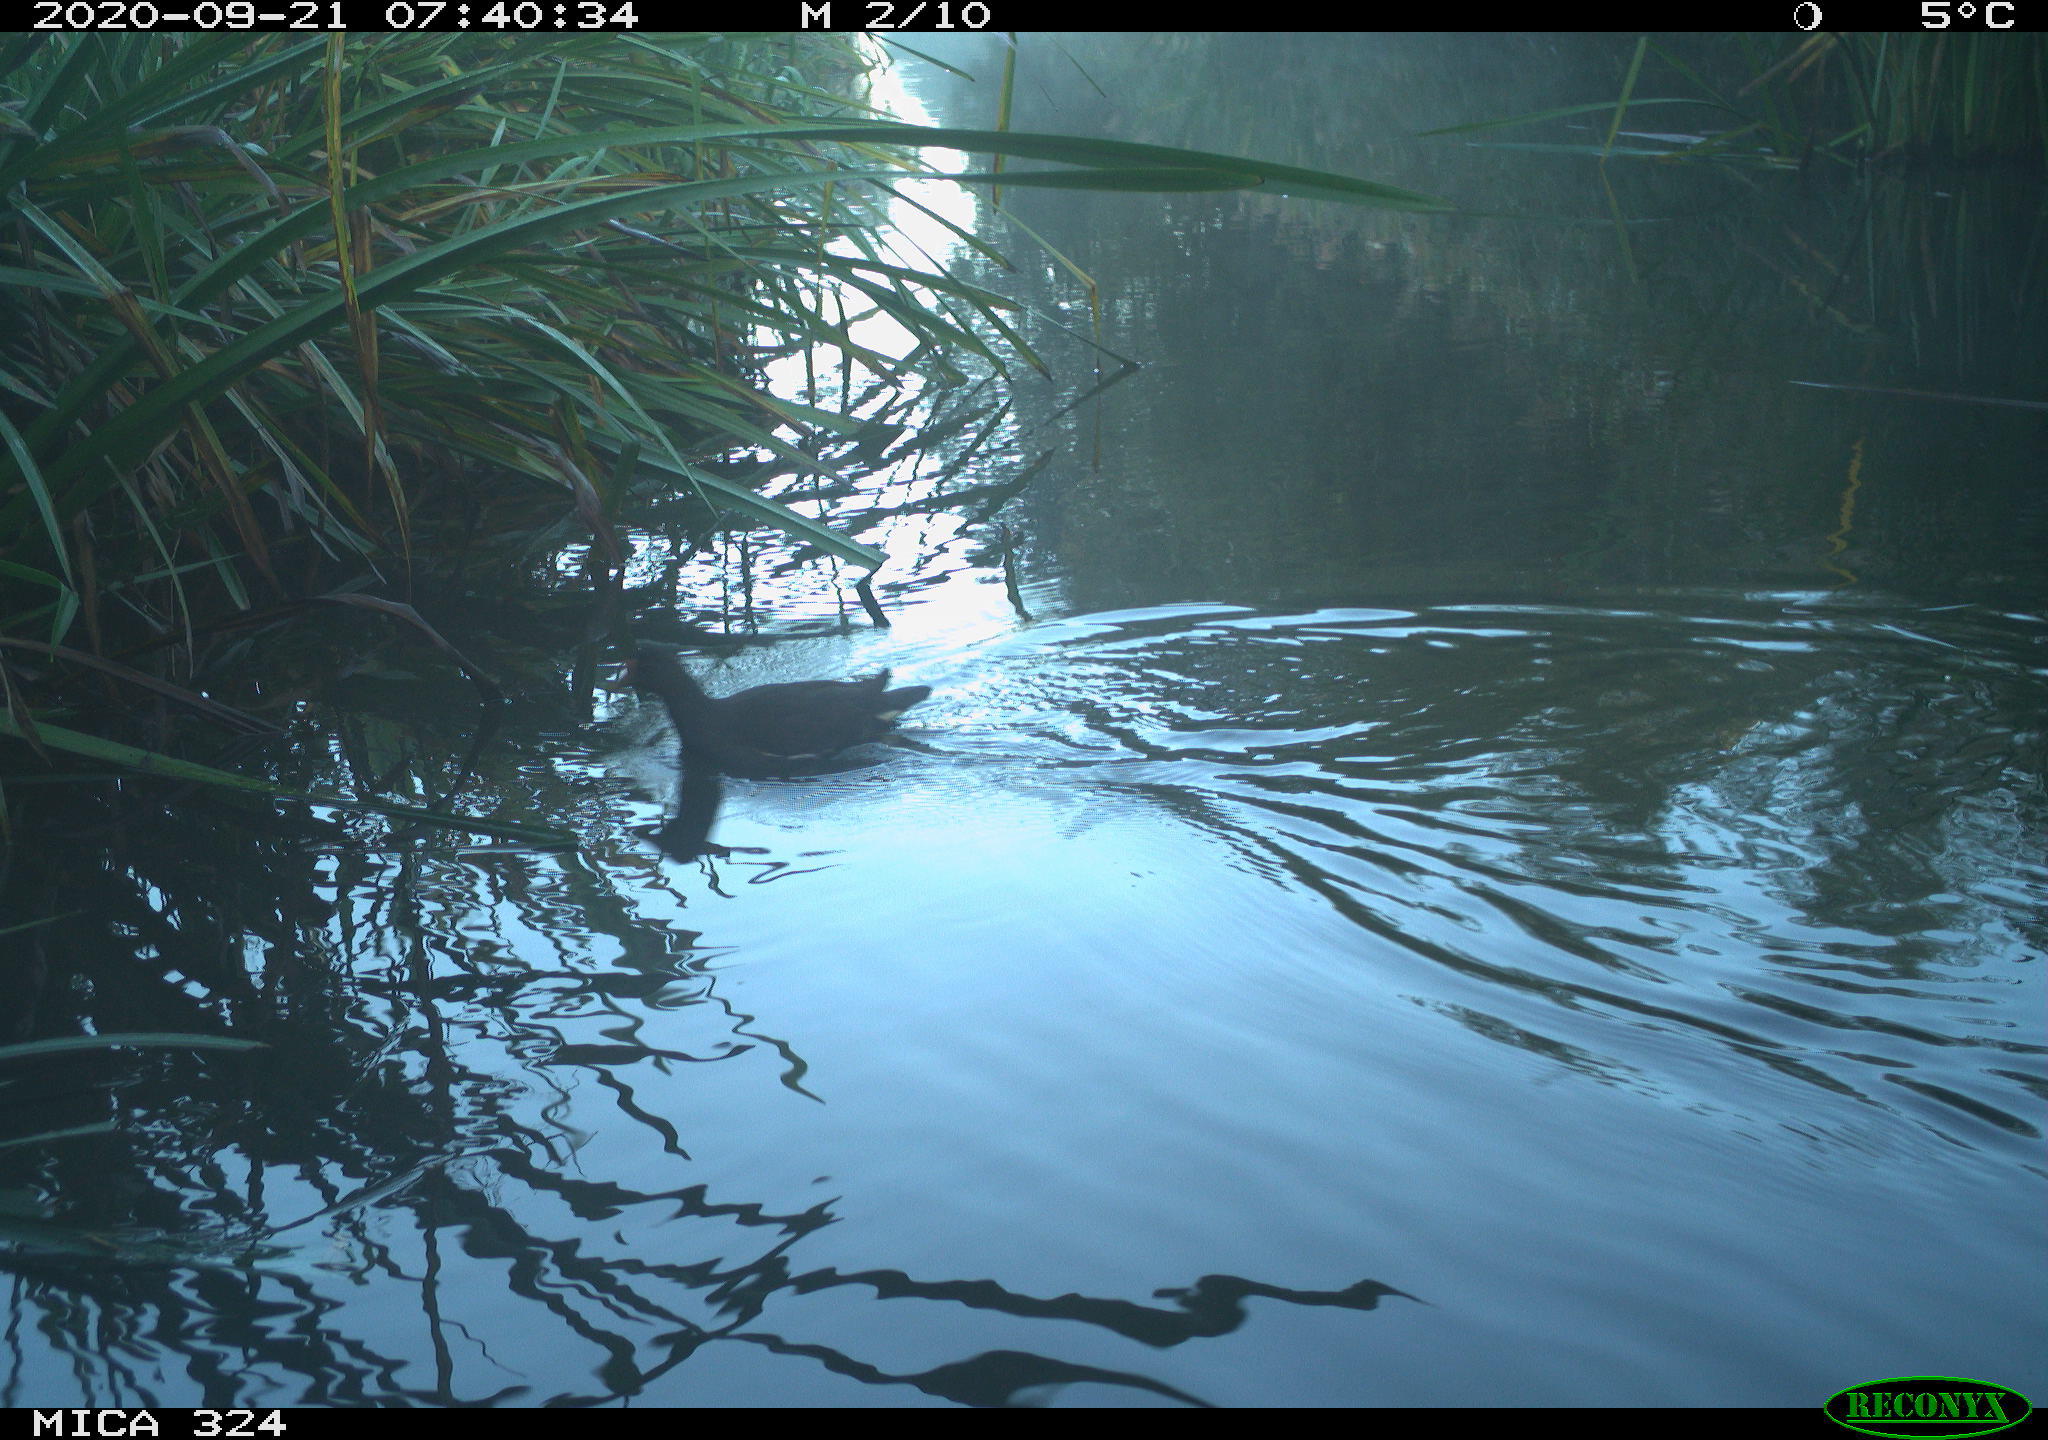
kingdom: Animalia
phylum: Chordata
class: Aves
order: Gruiformes
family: Rallidae
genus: Gallinula
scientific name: Gallinula chloropus
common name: Common moorhen
